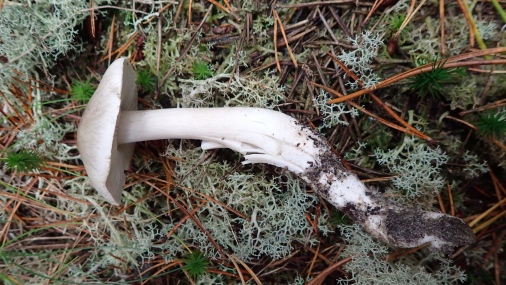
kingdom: Fungi
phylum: Basidiomycota
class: Agaricomycetes
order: Agaricales
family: Tricholomataceae
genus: Tricholoma
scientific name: Tricholoma sudum
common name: tør ridderhat
